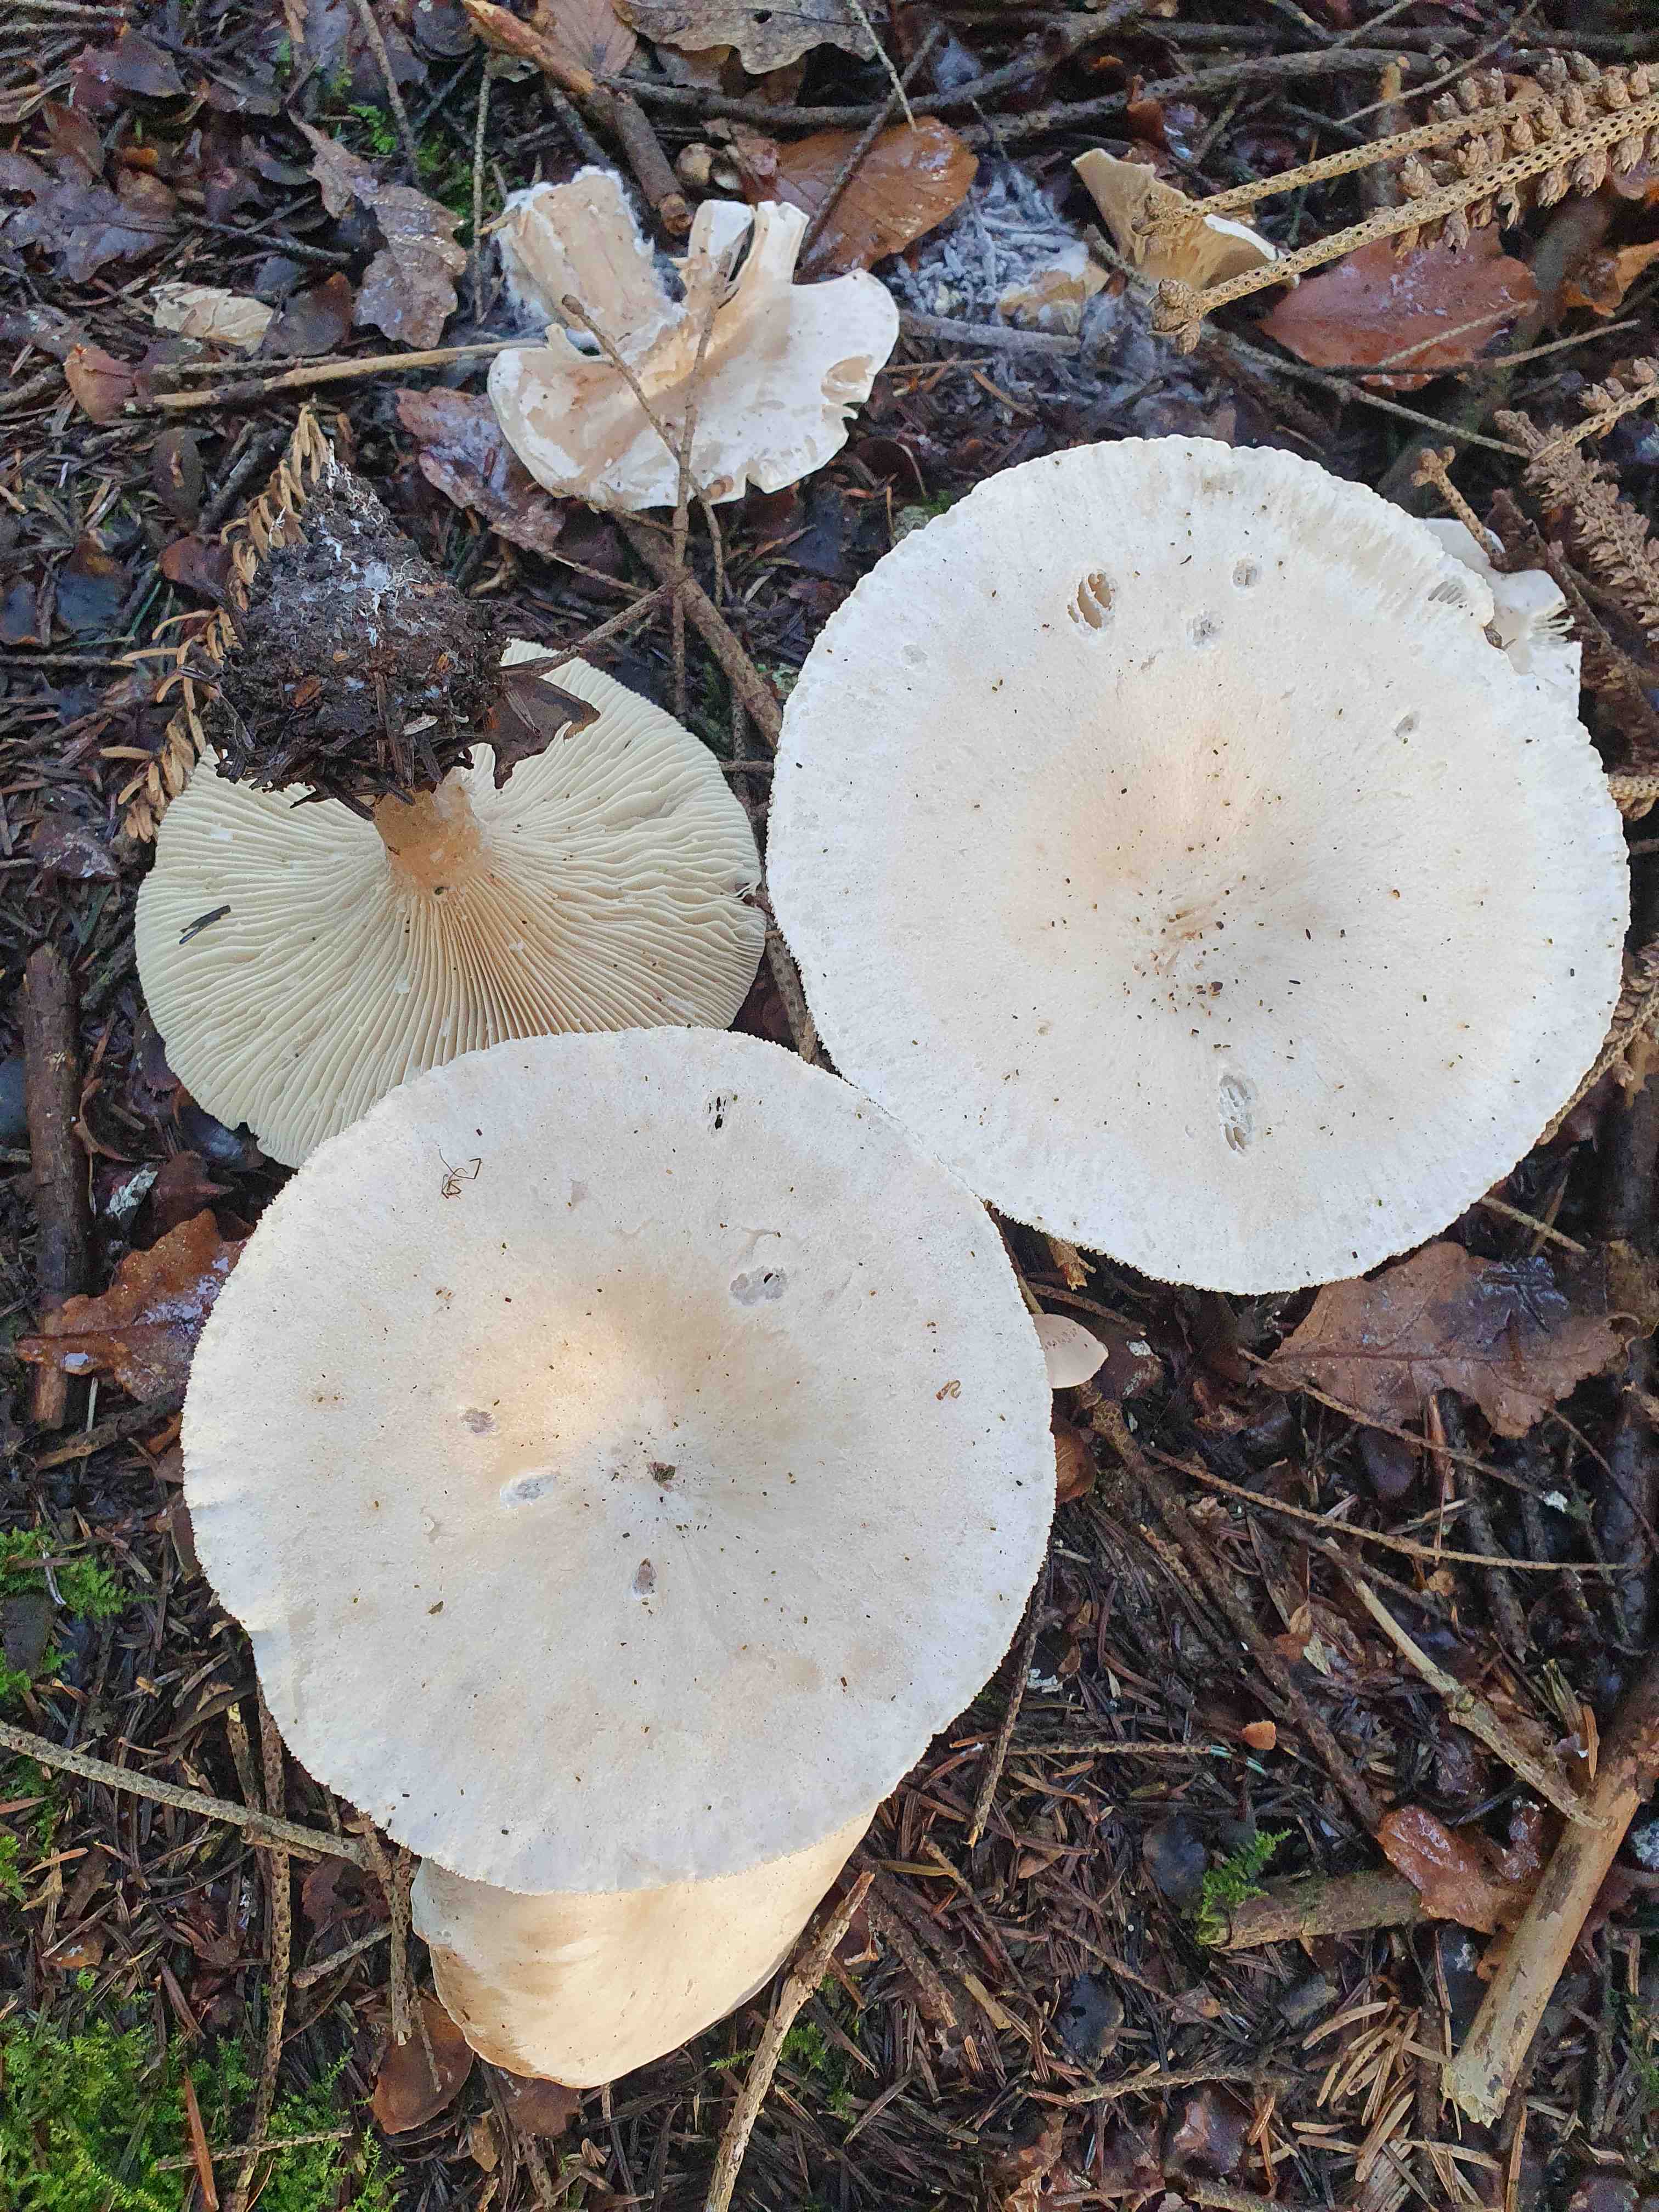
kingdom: Fungi
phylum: Basidiomycota
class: Agaricomycetes
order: Agaricales
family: Tricholomataceae
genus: Infundibulicybe
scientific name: Infundibulicybe geotropa
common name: stor tragthat
